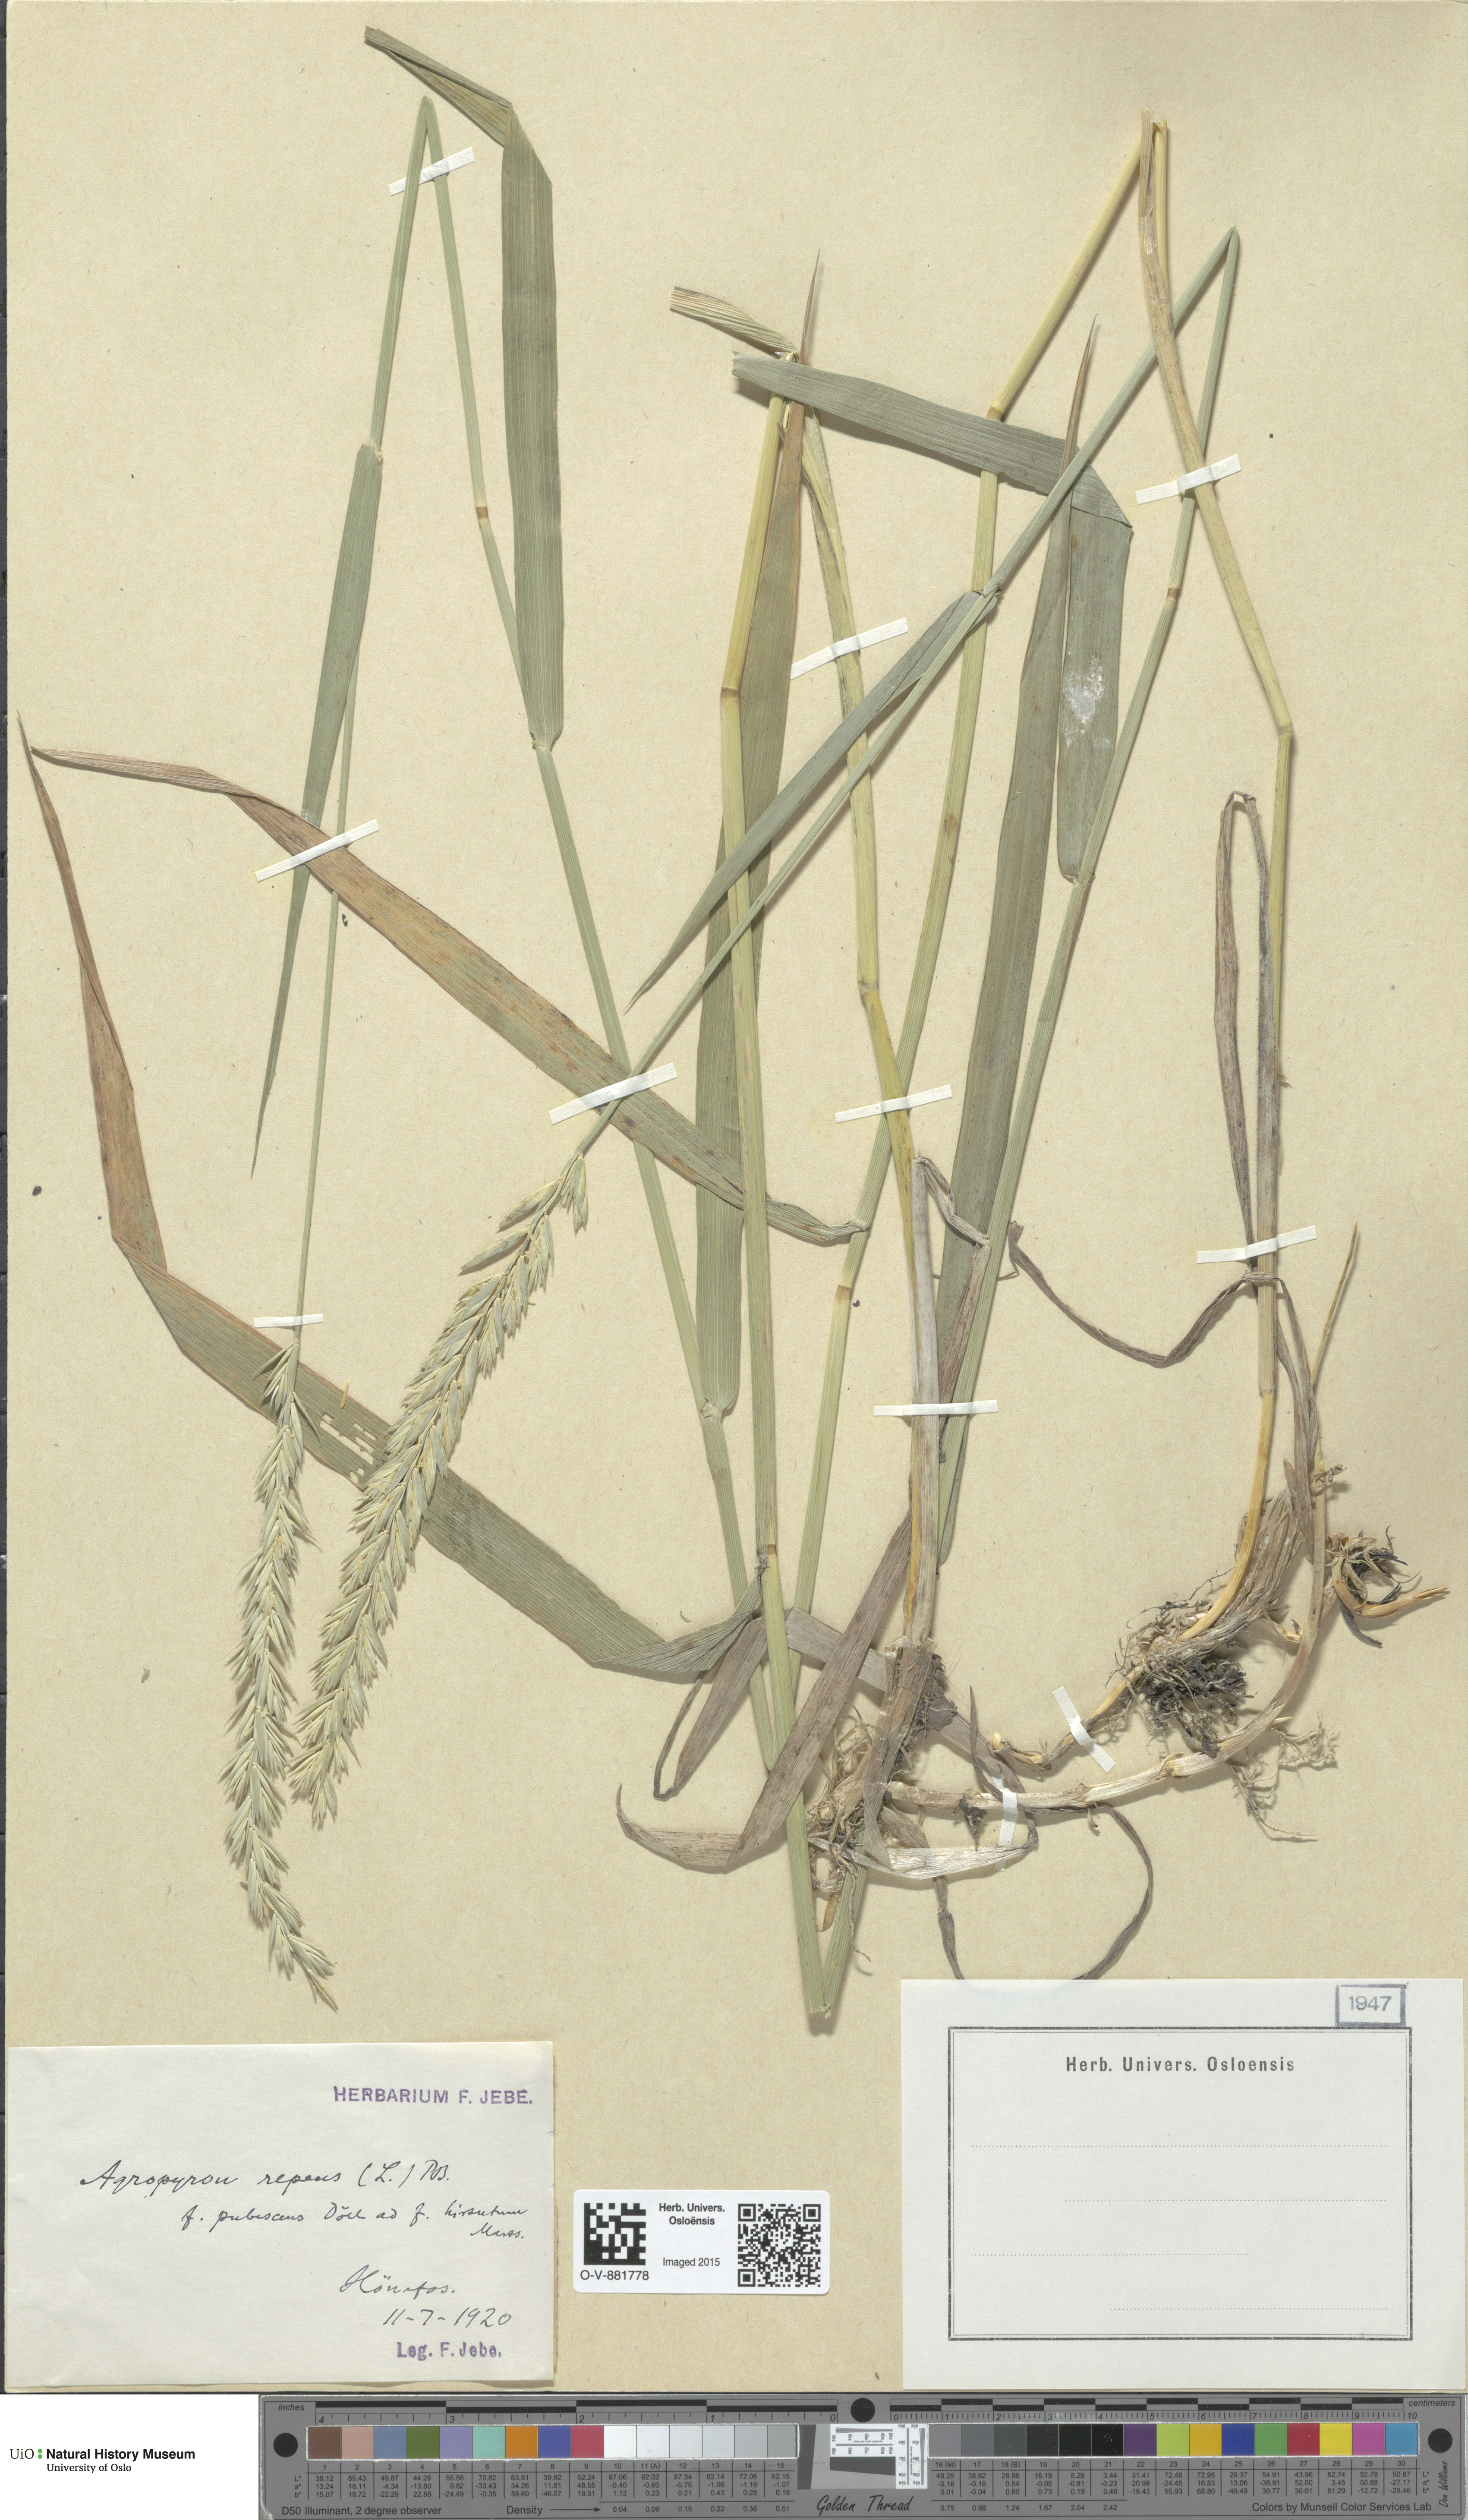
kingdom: Plantae
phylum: Tracheophyta
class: Liliopsida
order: Poales
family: Poaceae
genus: Elymus
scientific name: Elymus repens
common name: Quackgrass
